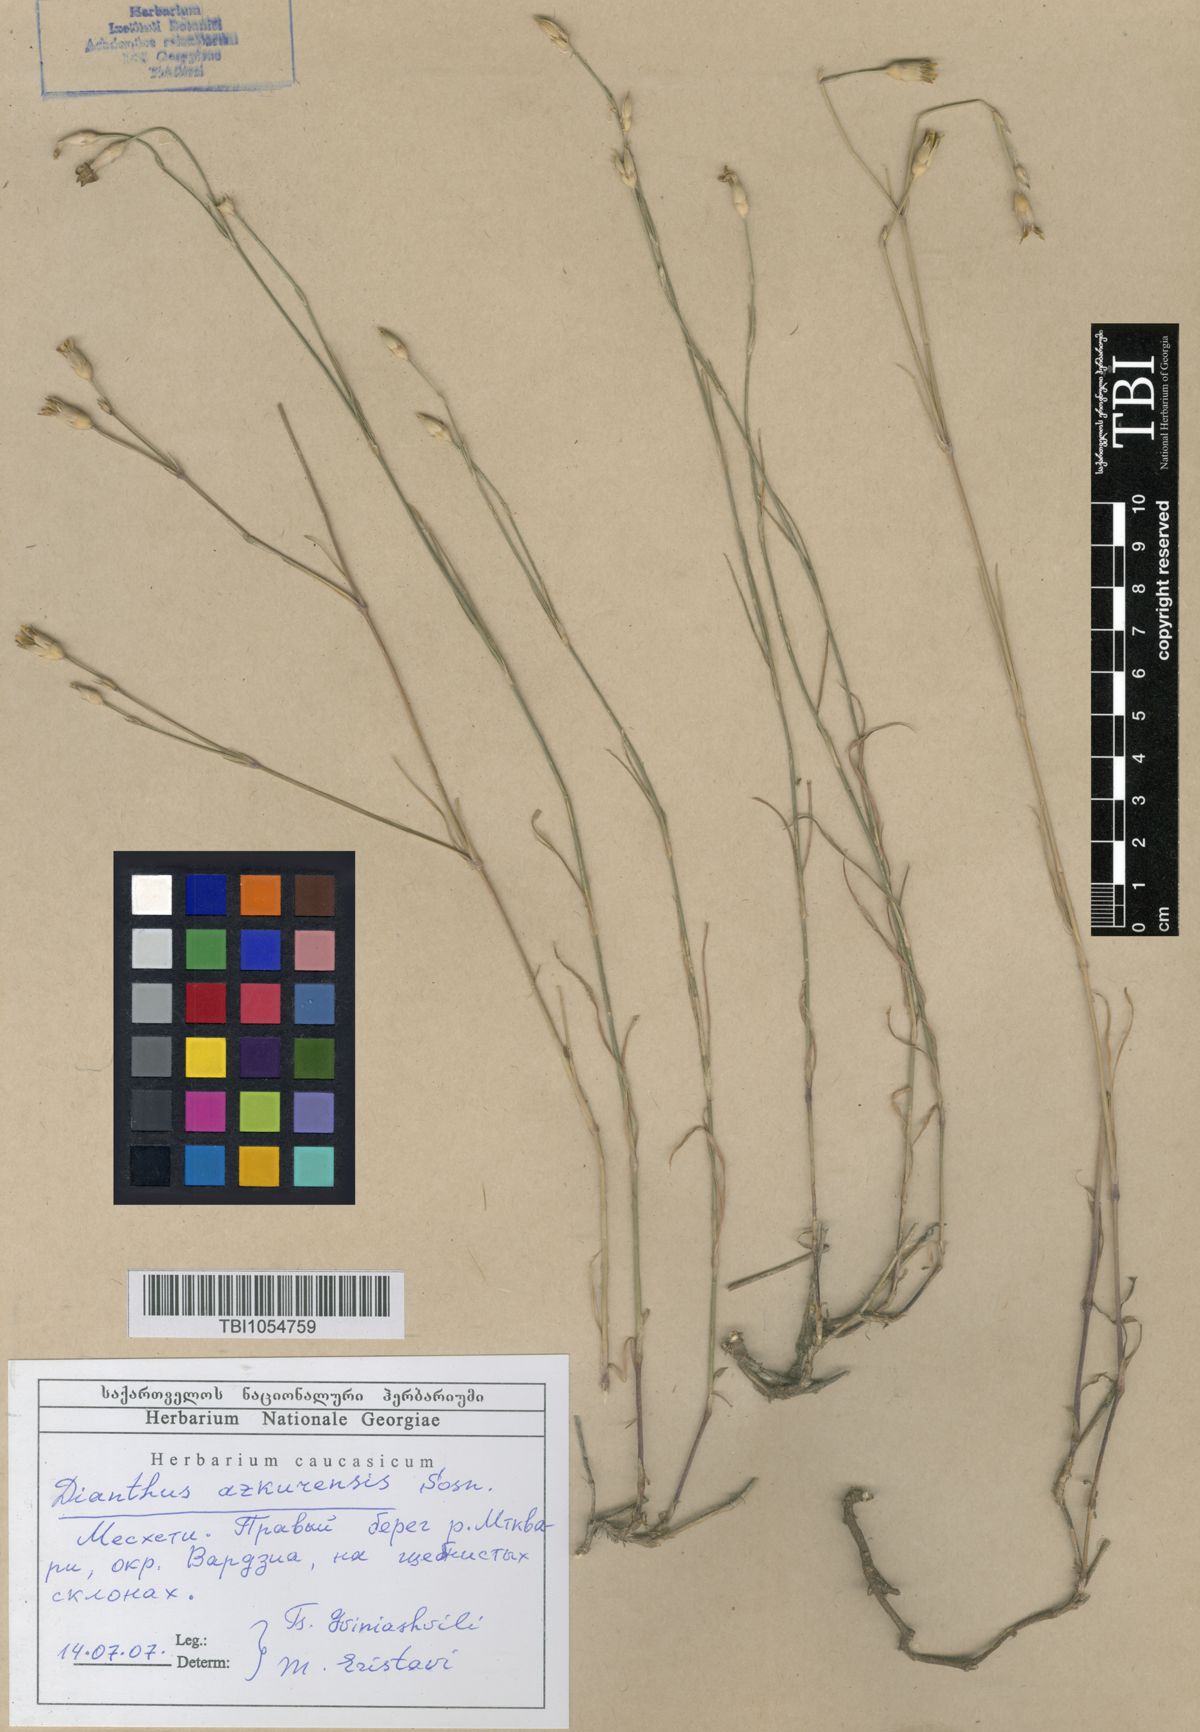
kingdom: Plantae
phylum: Tracheophyta
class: Magnoliopsida
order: Caryophyllales
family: Caryophyllaceae
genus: Dianthus
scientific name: Dianthus
